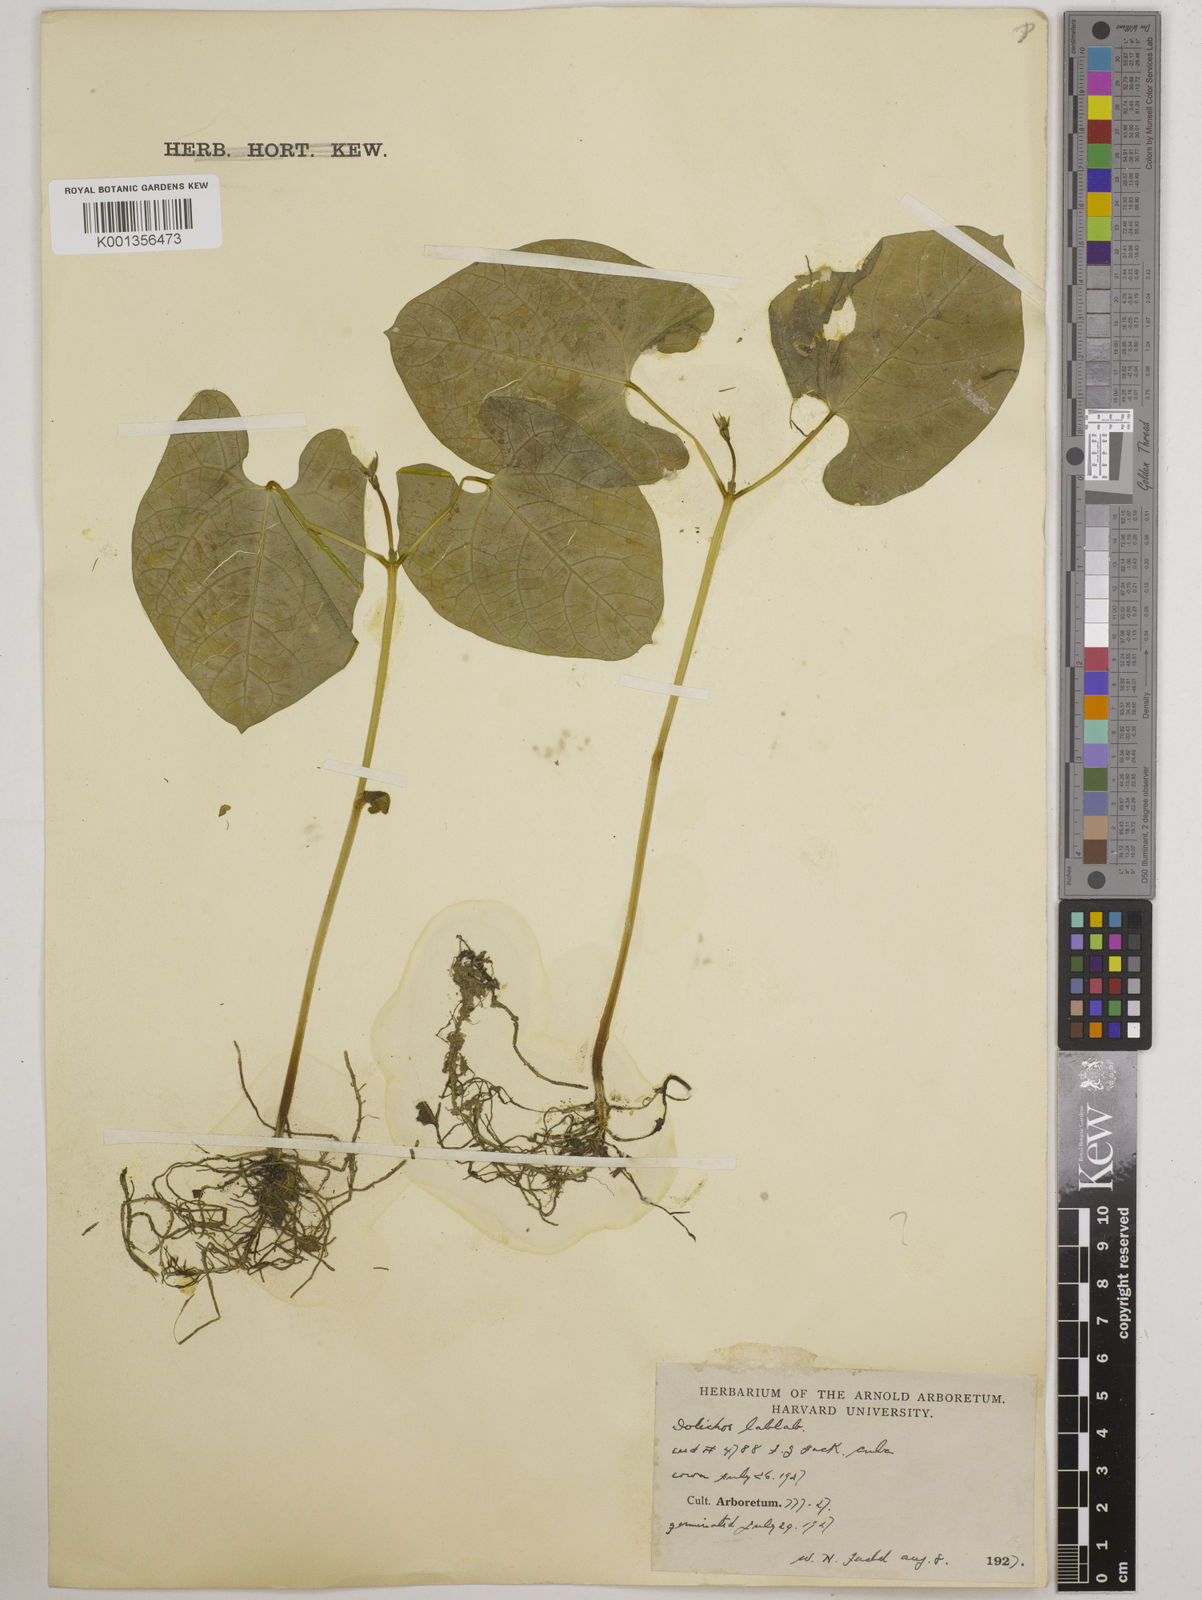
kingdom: Plantae
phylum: Tracheophyta
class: Magnoliopsida
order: Fabales
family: Fabaceae
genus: Lablab
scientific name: Lablab purpureus
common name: Lablab-bean
